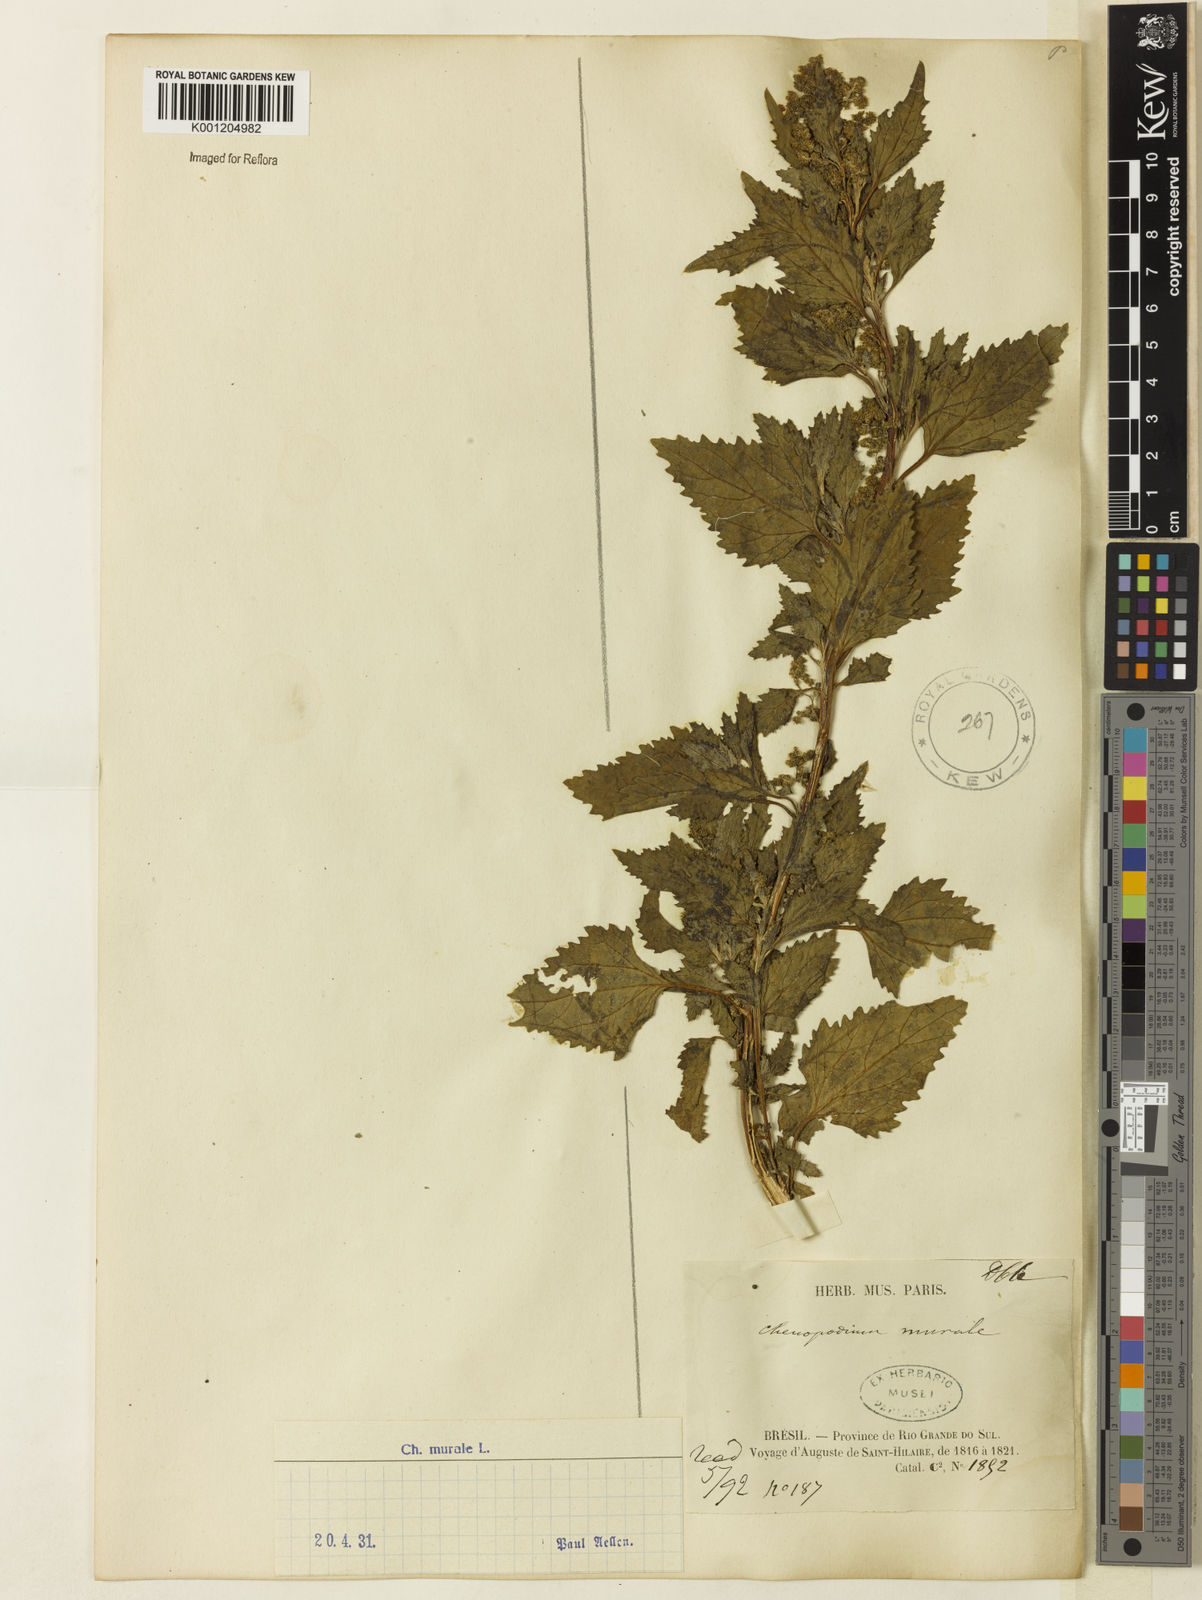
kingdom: Plantae
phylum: Tracheophyta
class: Magnoliopsida
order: Caryophyllales
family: Amaranthaceae
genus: Chenopodiastrum
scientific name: Chenopodiastrum murale
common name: Sowbane
